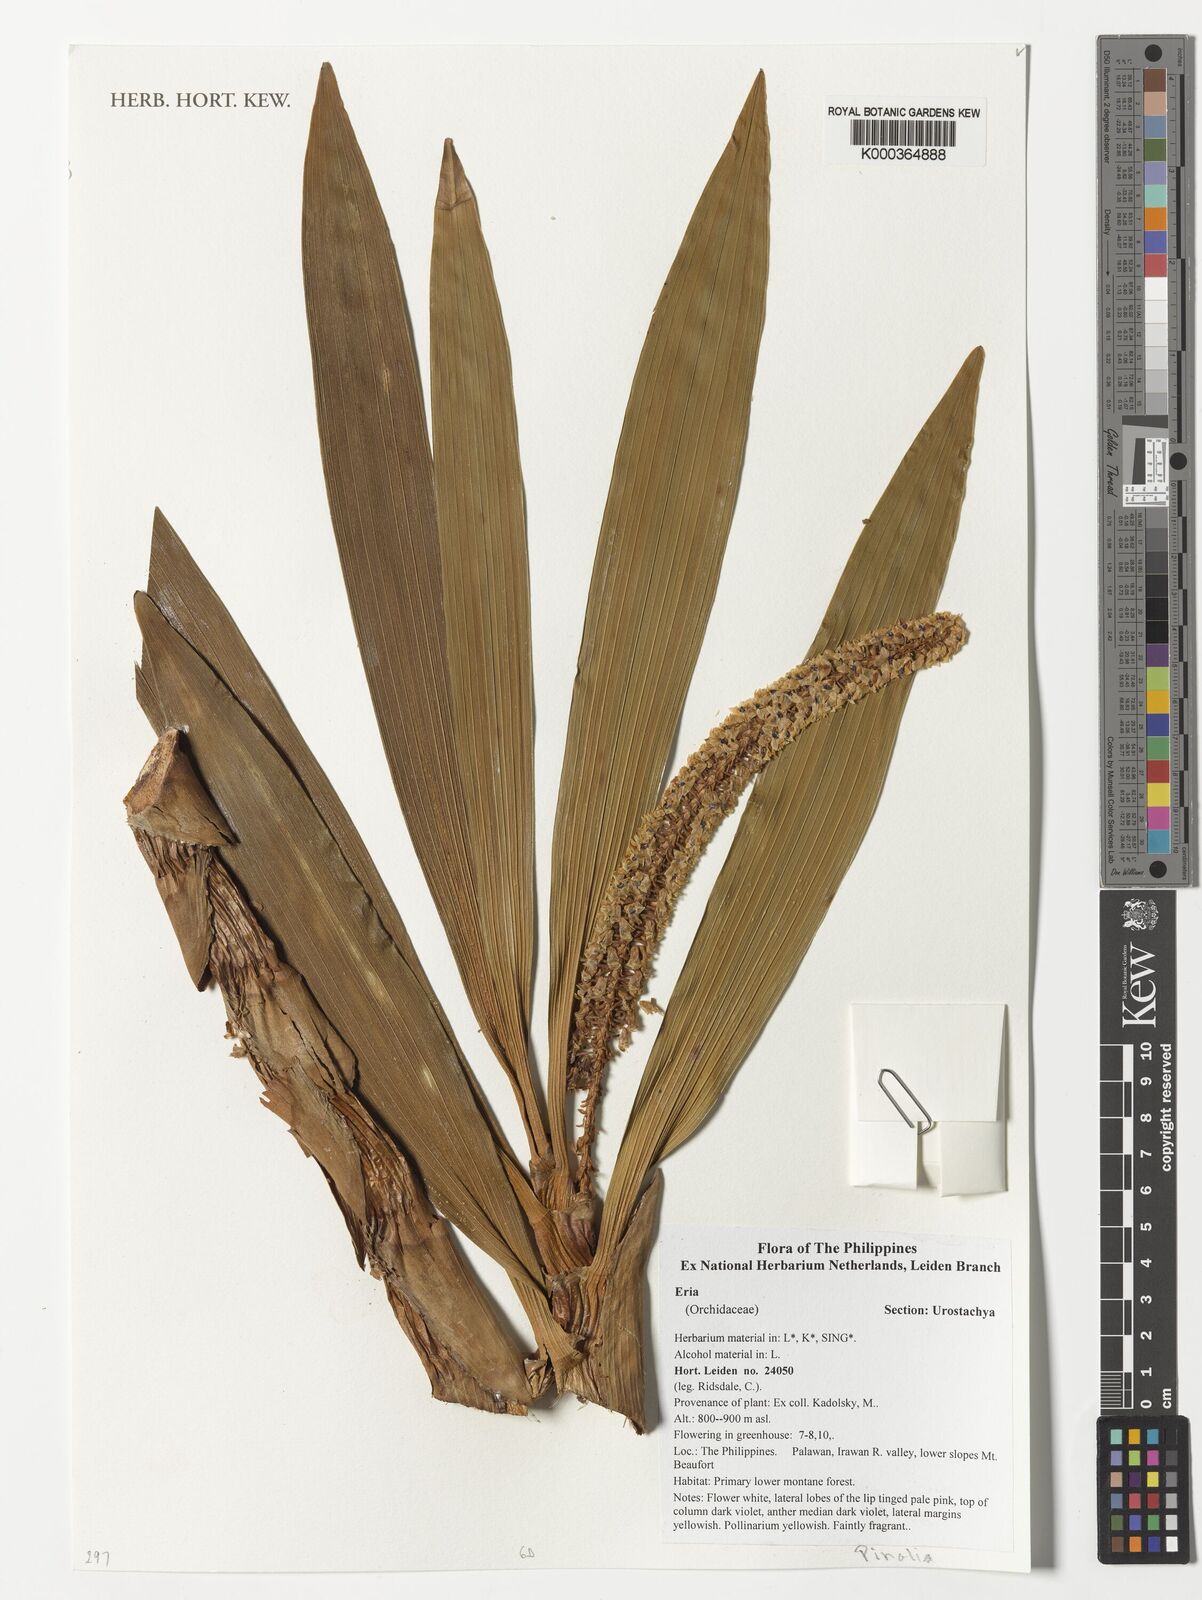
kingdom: Plantae
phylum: Tracheophyta
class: Liliopsida
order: Asparagales
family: Orchidaceae
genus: Eria
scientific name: Eria
